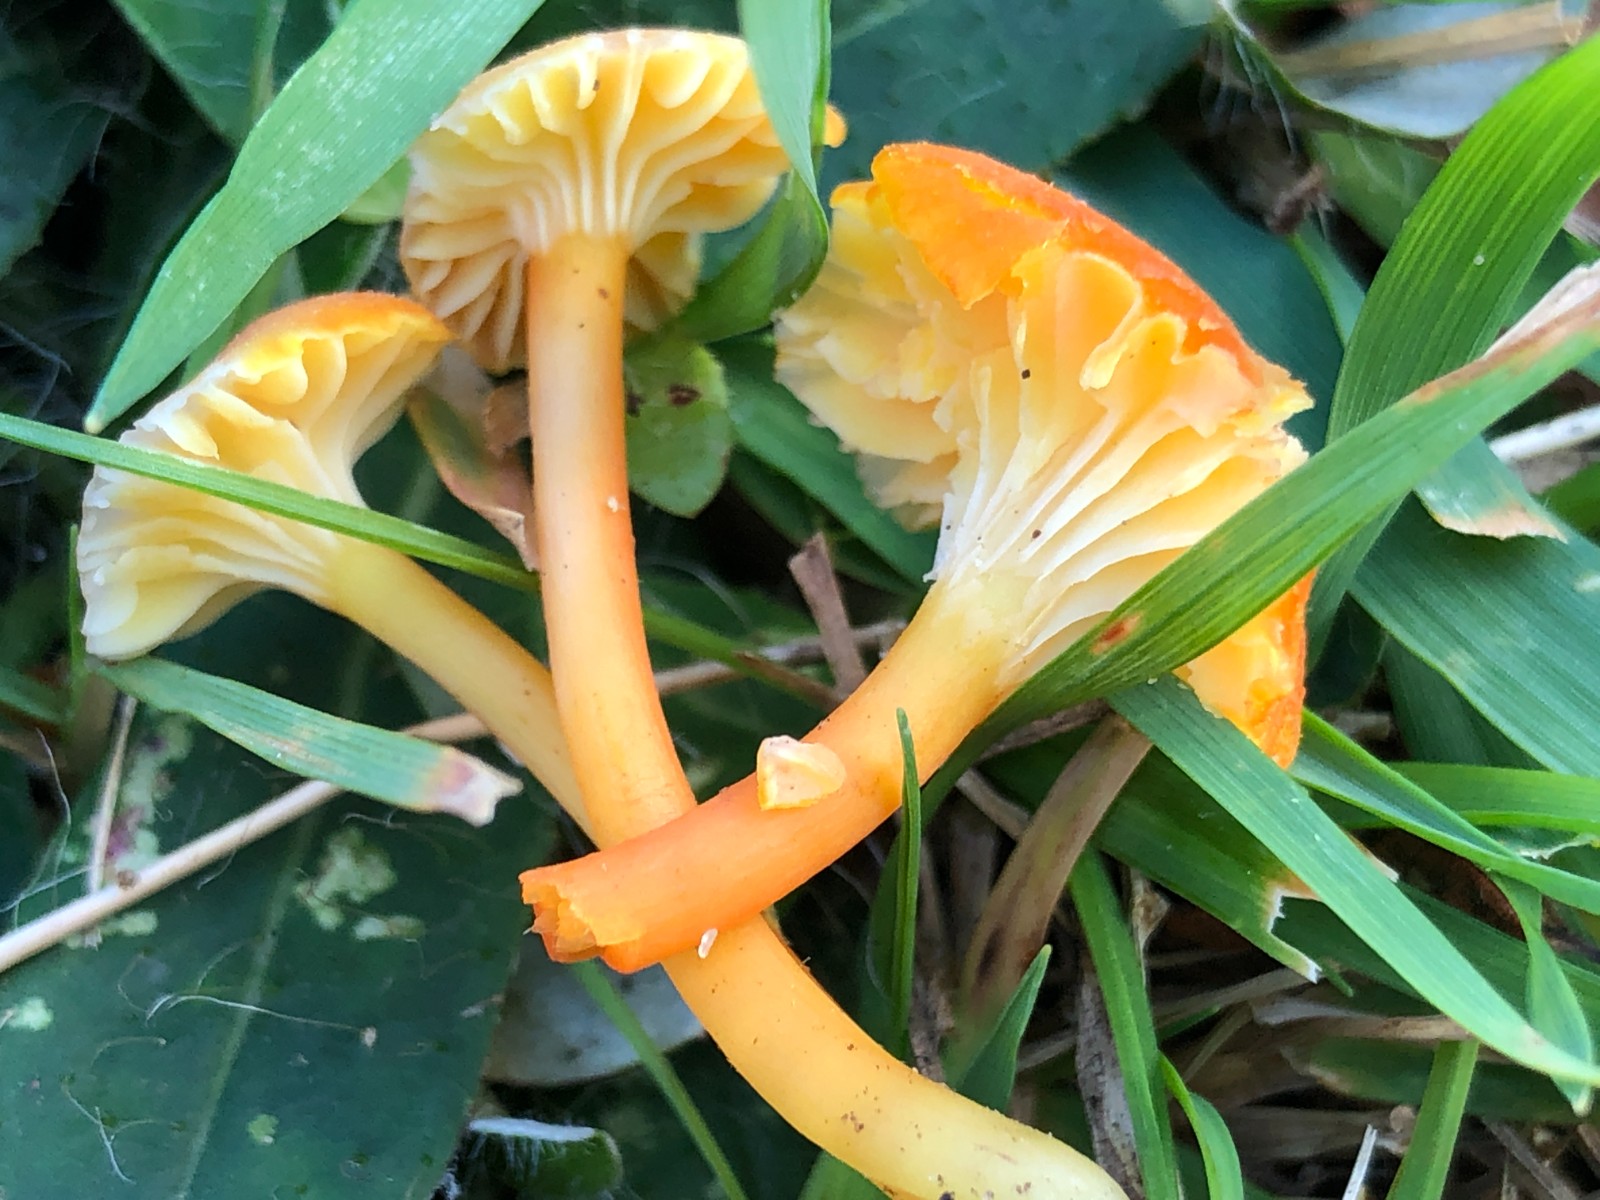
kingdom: Fungi
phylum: Basidiomycota
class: Agaricomycetes
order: Agaricales
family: Hygrophoraceae
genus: Hygrocybe
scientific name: Hygrocybe cantharellus
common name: kantarel-vokshat
